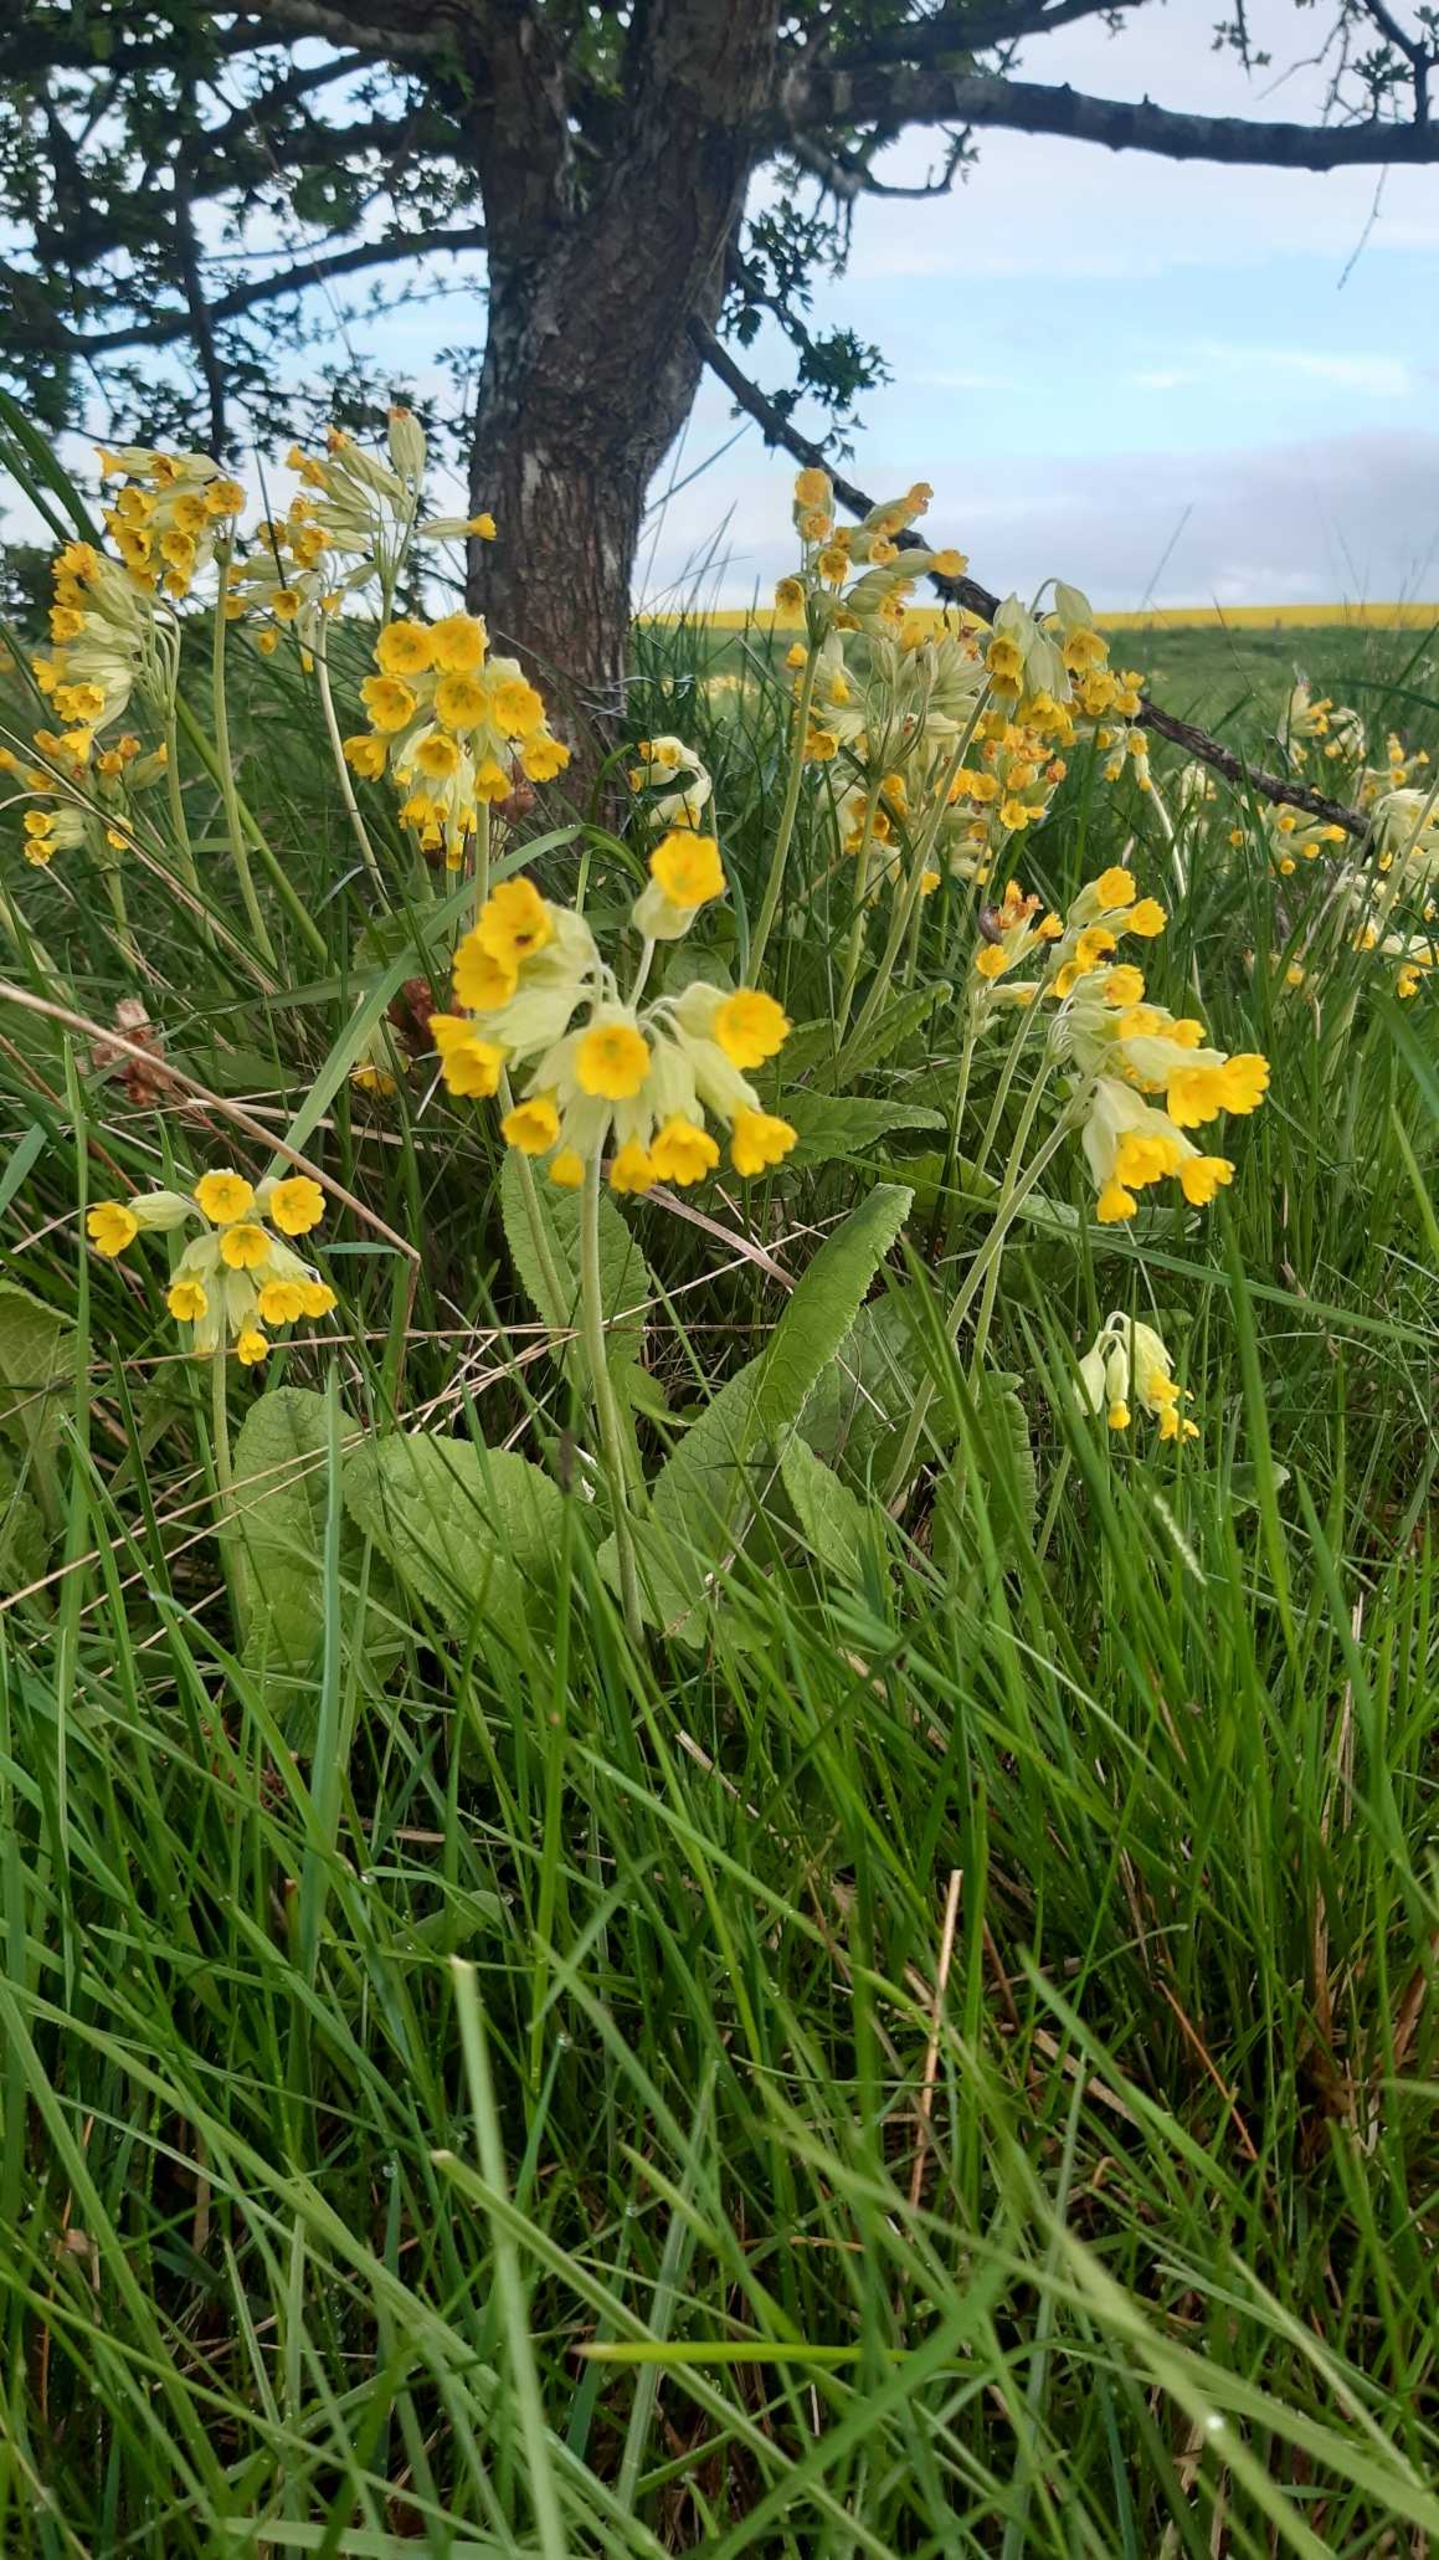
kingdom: Plantae
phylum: Tracheophyta
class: Magnoliopsida
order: Ericales
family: Primulaceae
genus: Primula
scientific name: Primula veris
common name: Hulkravet kodriver
